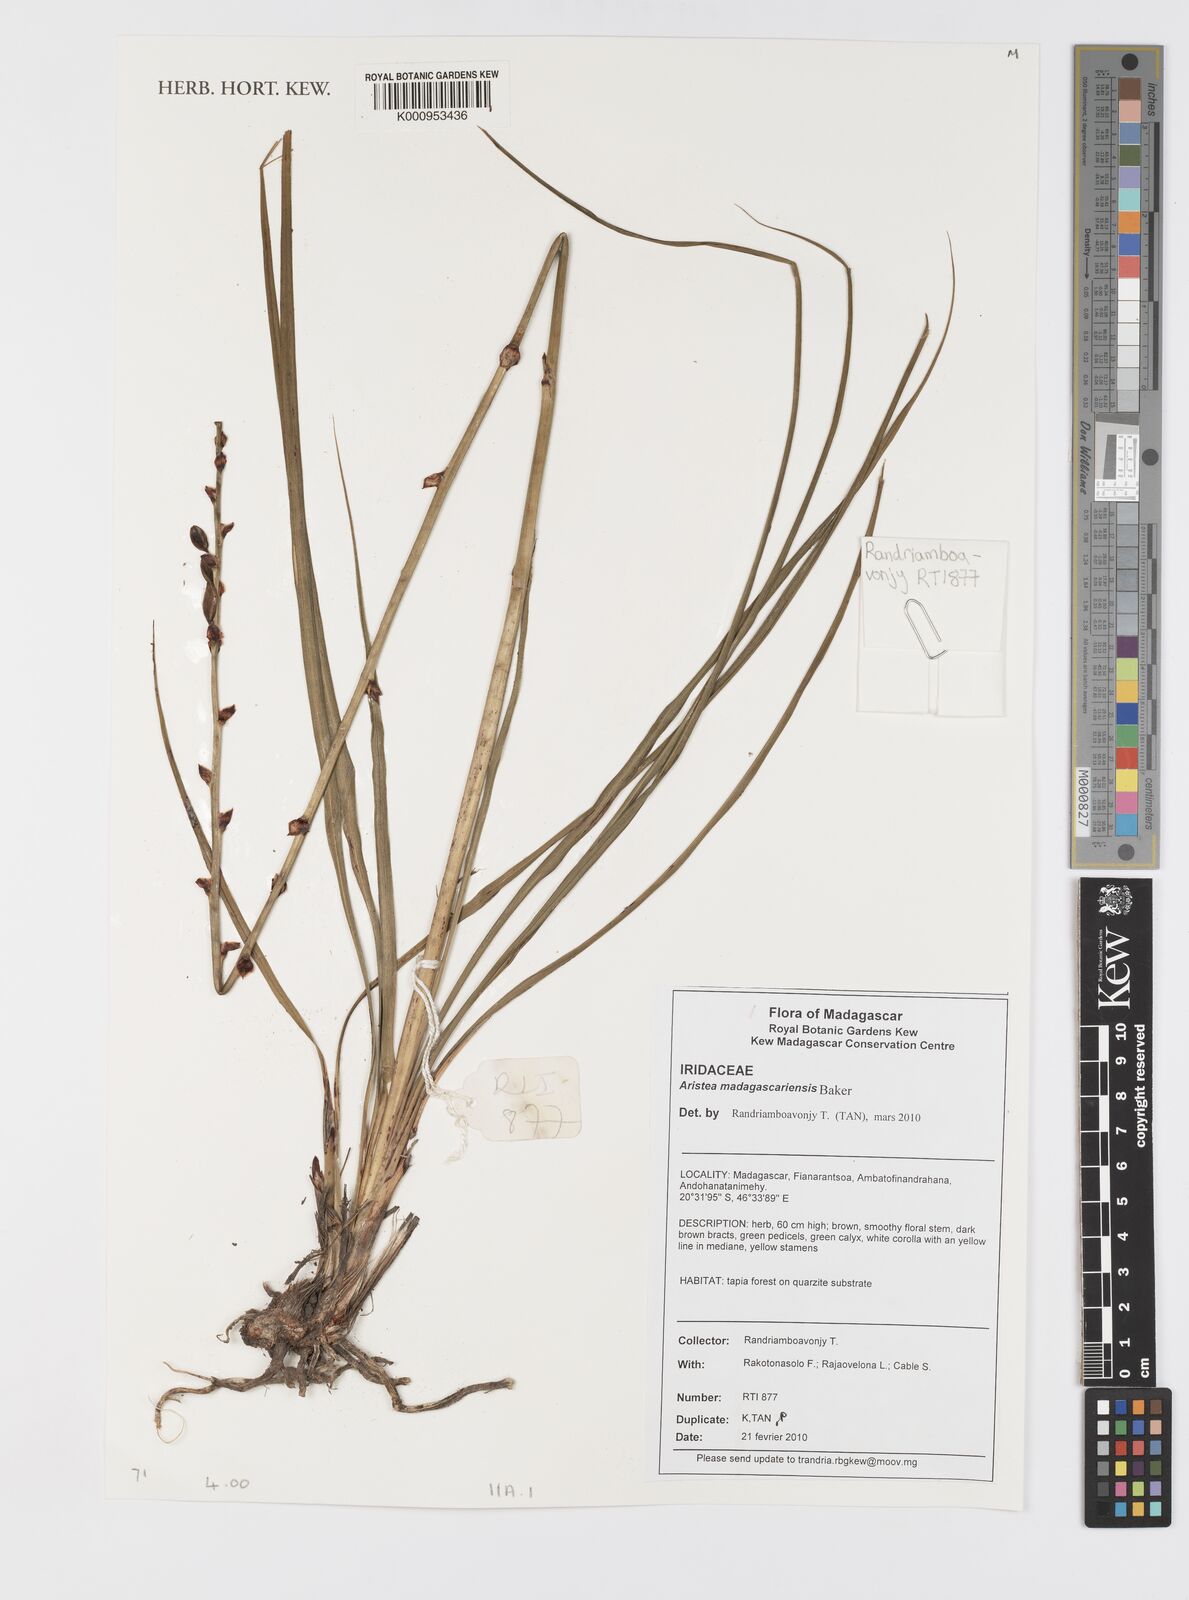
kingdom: Plantae
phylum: Tracheophyta
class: Liliopsida
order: Asparagales
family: Iridaceae
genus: Aristea
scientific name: Aristea madagascariensis
